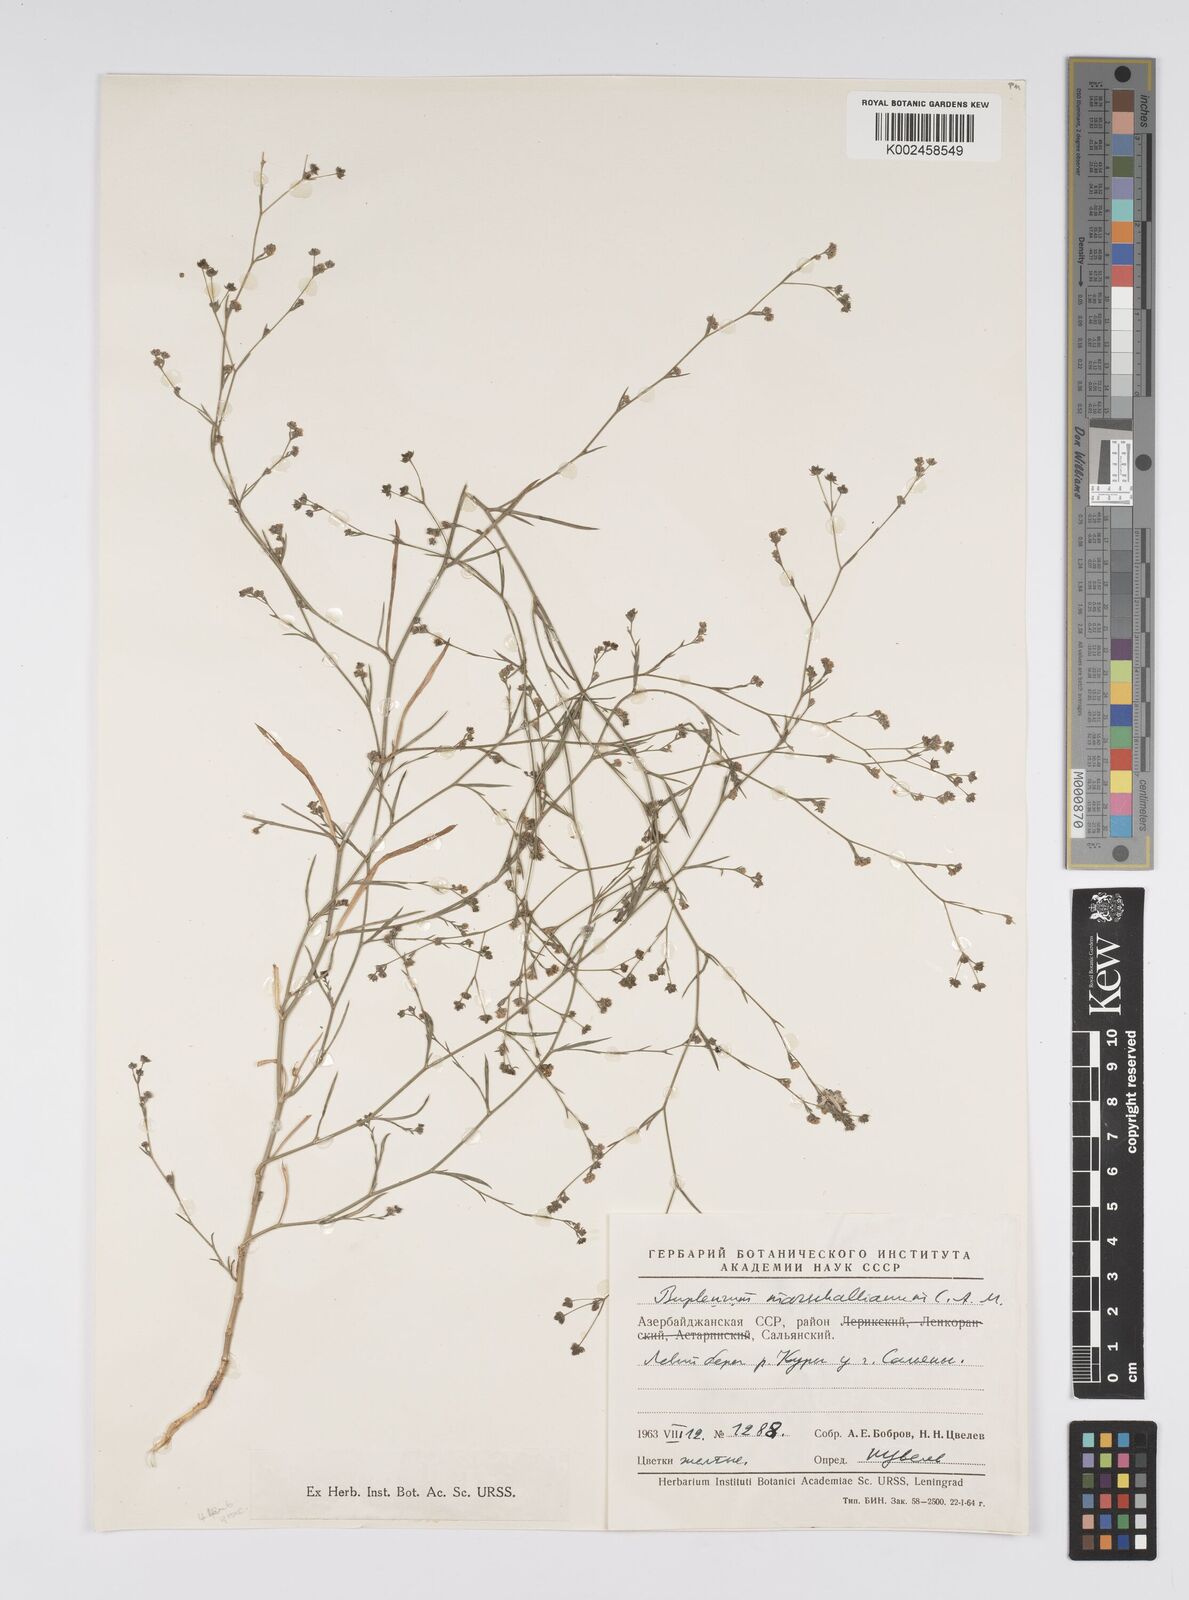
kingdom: Plantae
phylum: Tracheophyta
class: Magnoliopsida
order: Apiales
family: Apiaceae
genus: Bupleurum
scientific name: Bupleurum tenuissimum
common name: Slender hare's-ear
